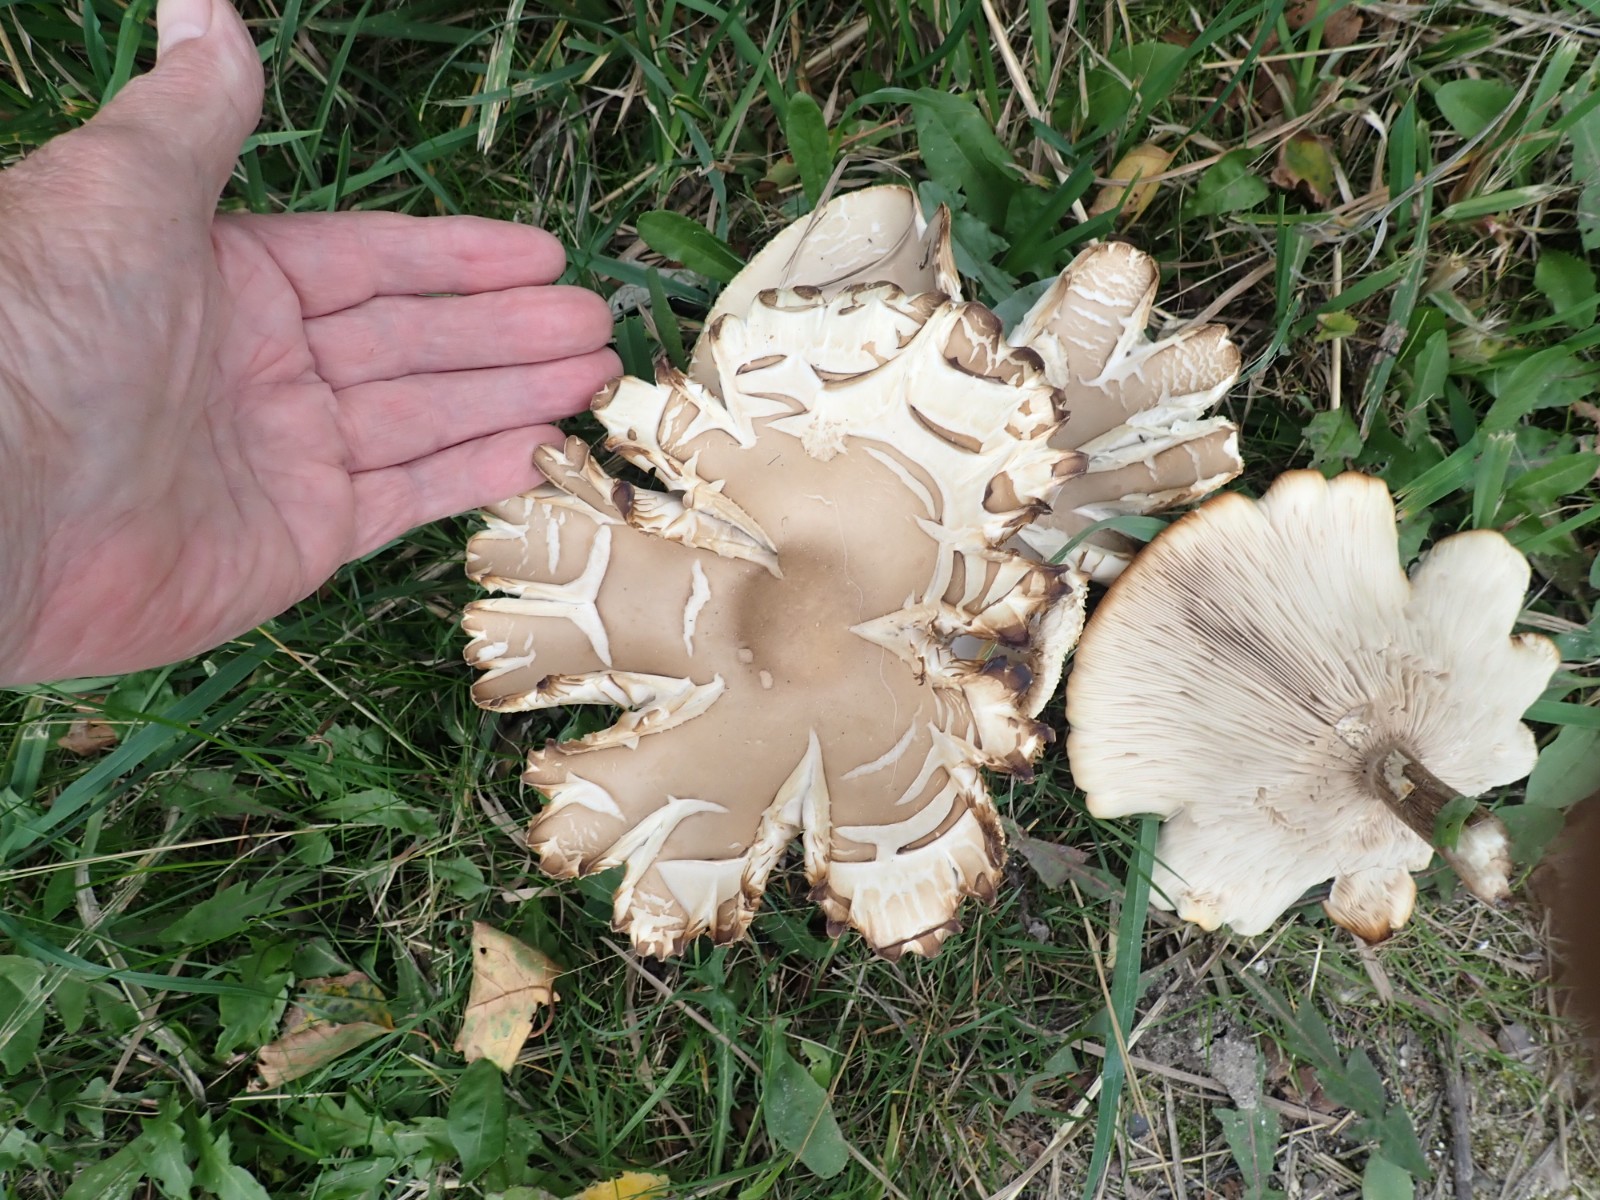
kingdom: Fungi
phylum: Basidiomycota
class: Agaricomycetes
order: Agaricales
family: Tricholomataceae
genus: Aspropaxillus
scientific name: Aspropaxillus giganteus
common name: kæmpe-tragtridderhat
